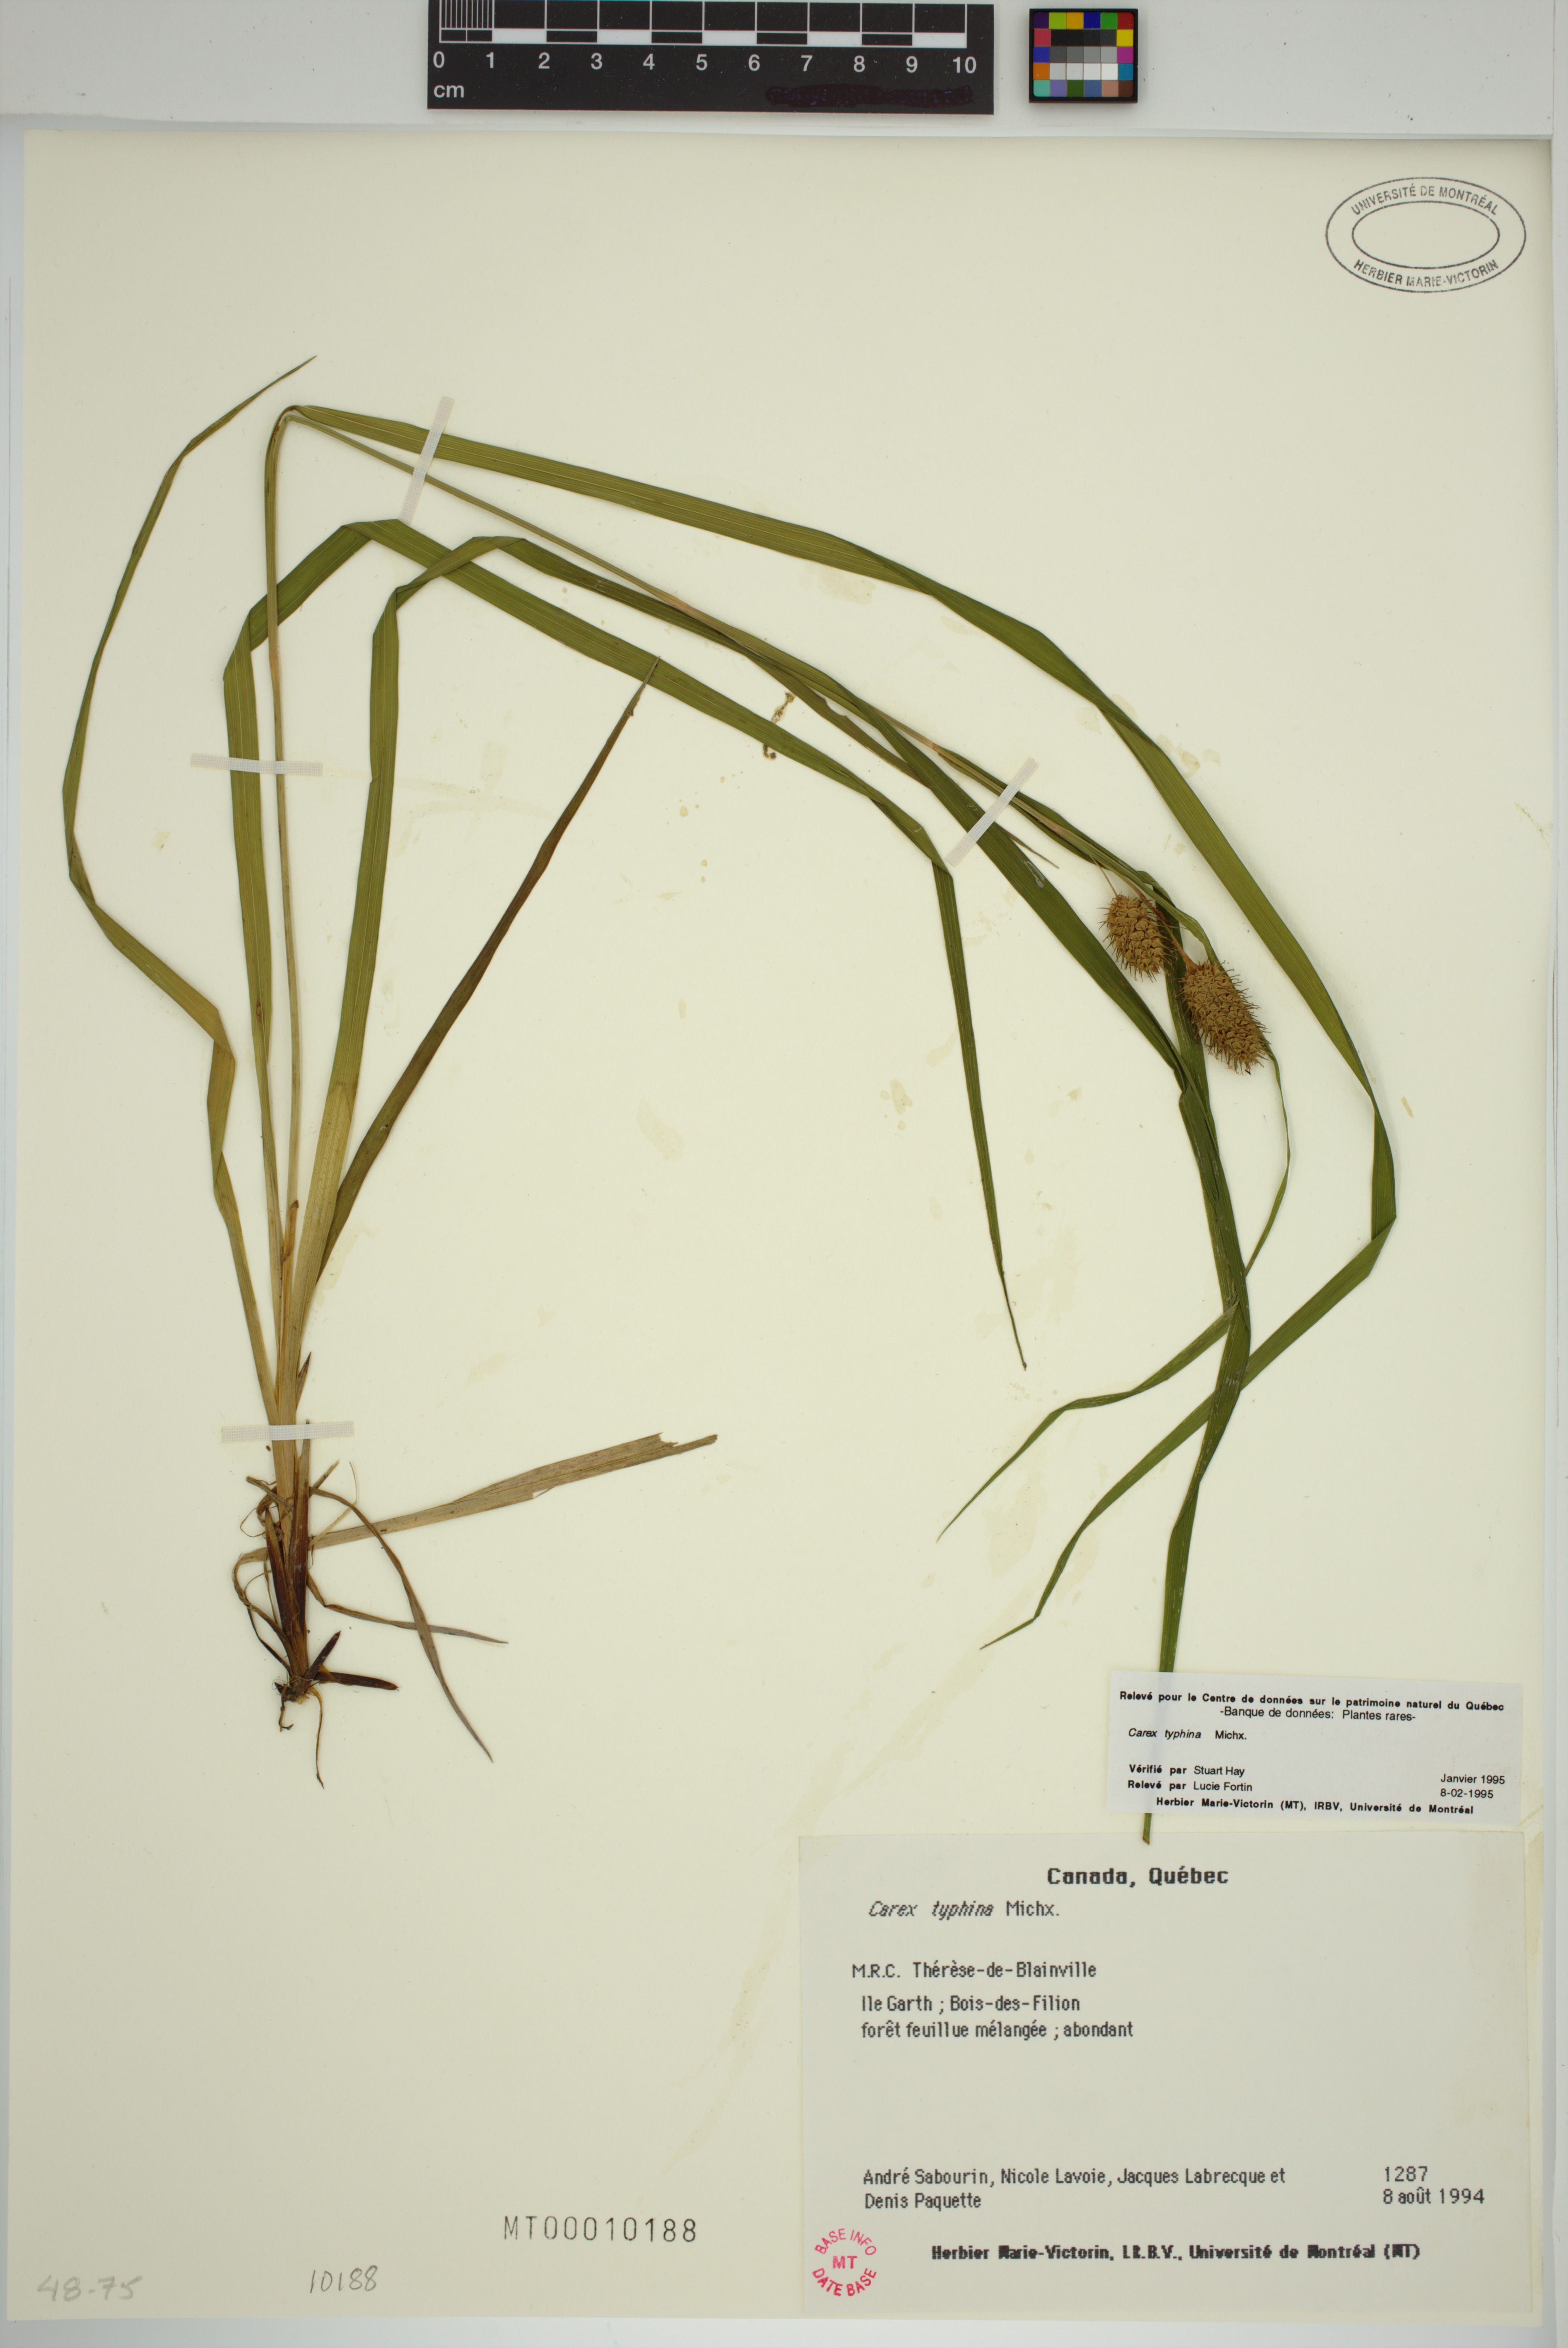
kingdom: Plantae
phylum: Tracheophyta
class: Liliopsida
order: Poales
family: Cyperaceae
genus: Carex
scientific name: Carex typhina
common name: Cattail sedge
